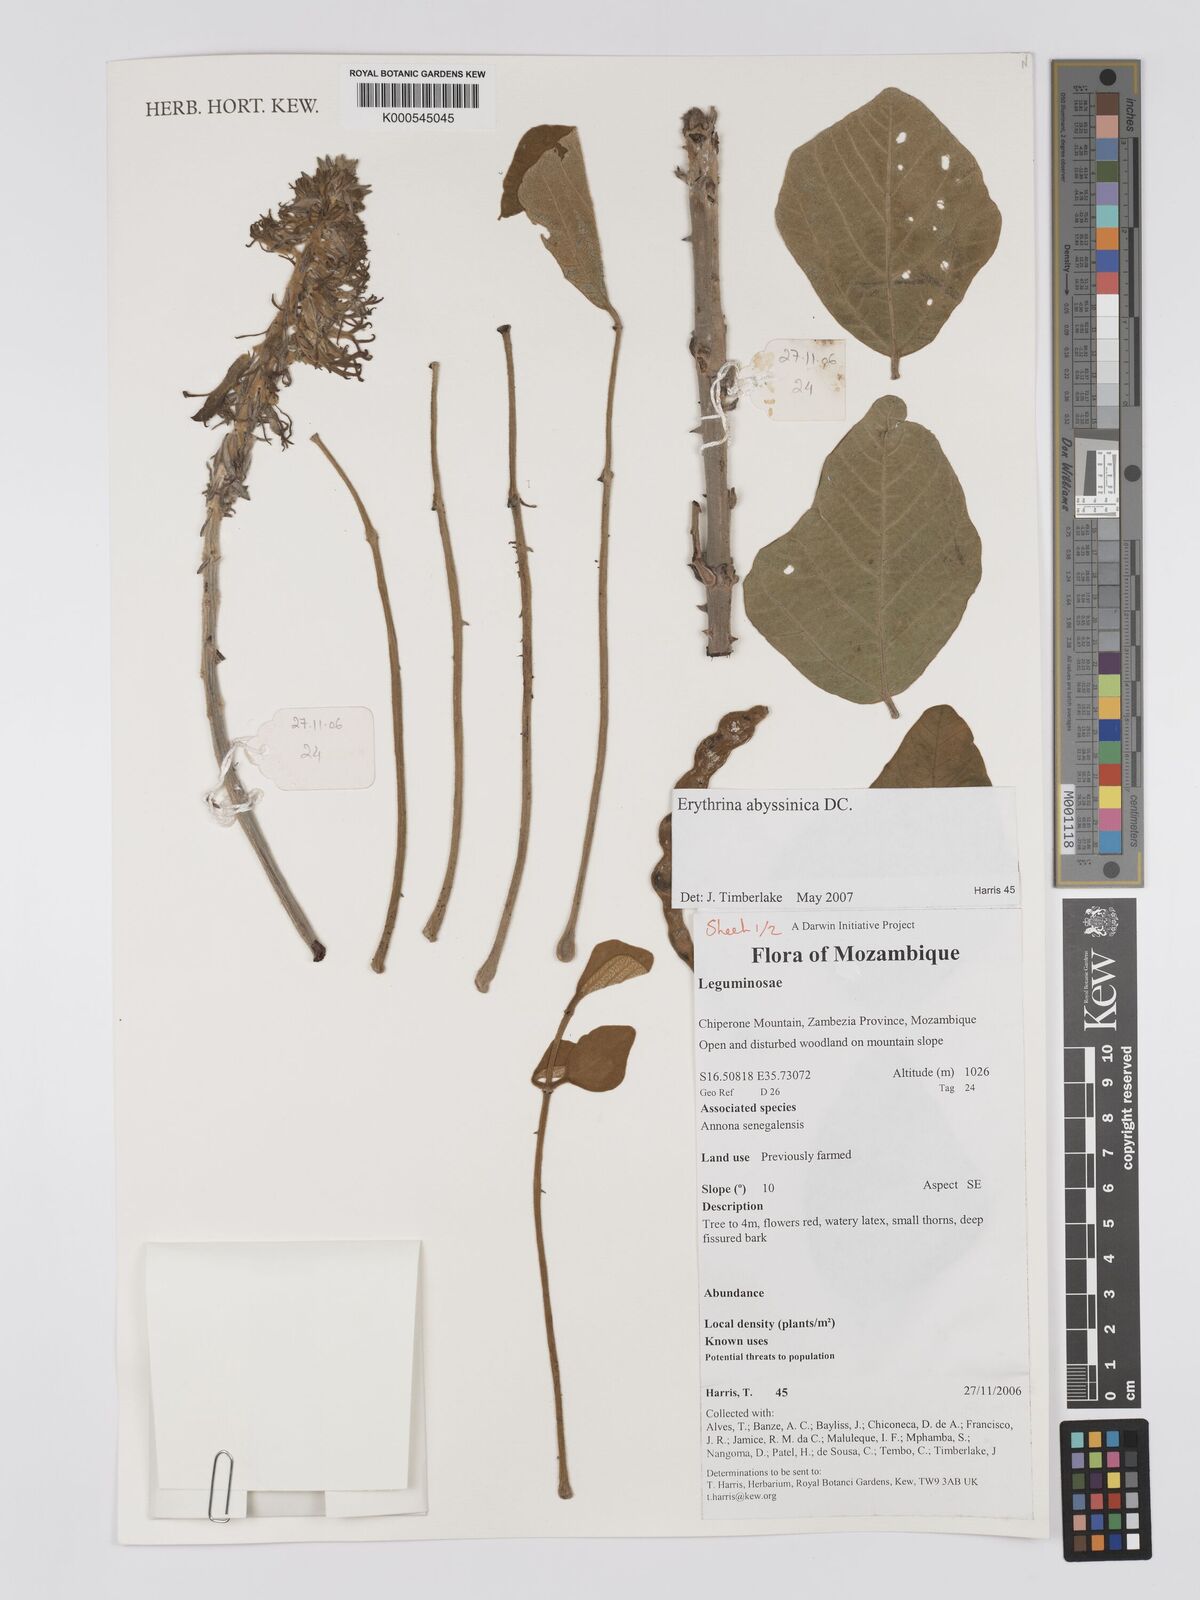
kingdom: Plantae
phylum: Tracheophyta
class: Magnoliopsida
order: Fabales
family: Fabaceae
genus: Erythrina
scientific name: Erythrina
